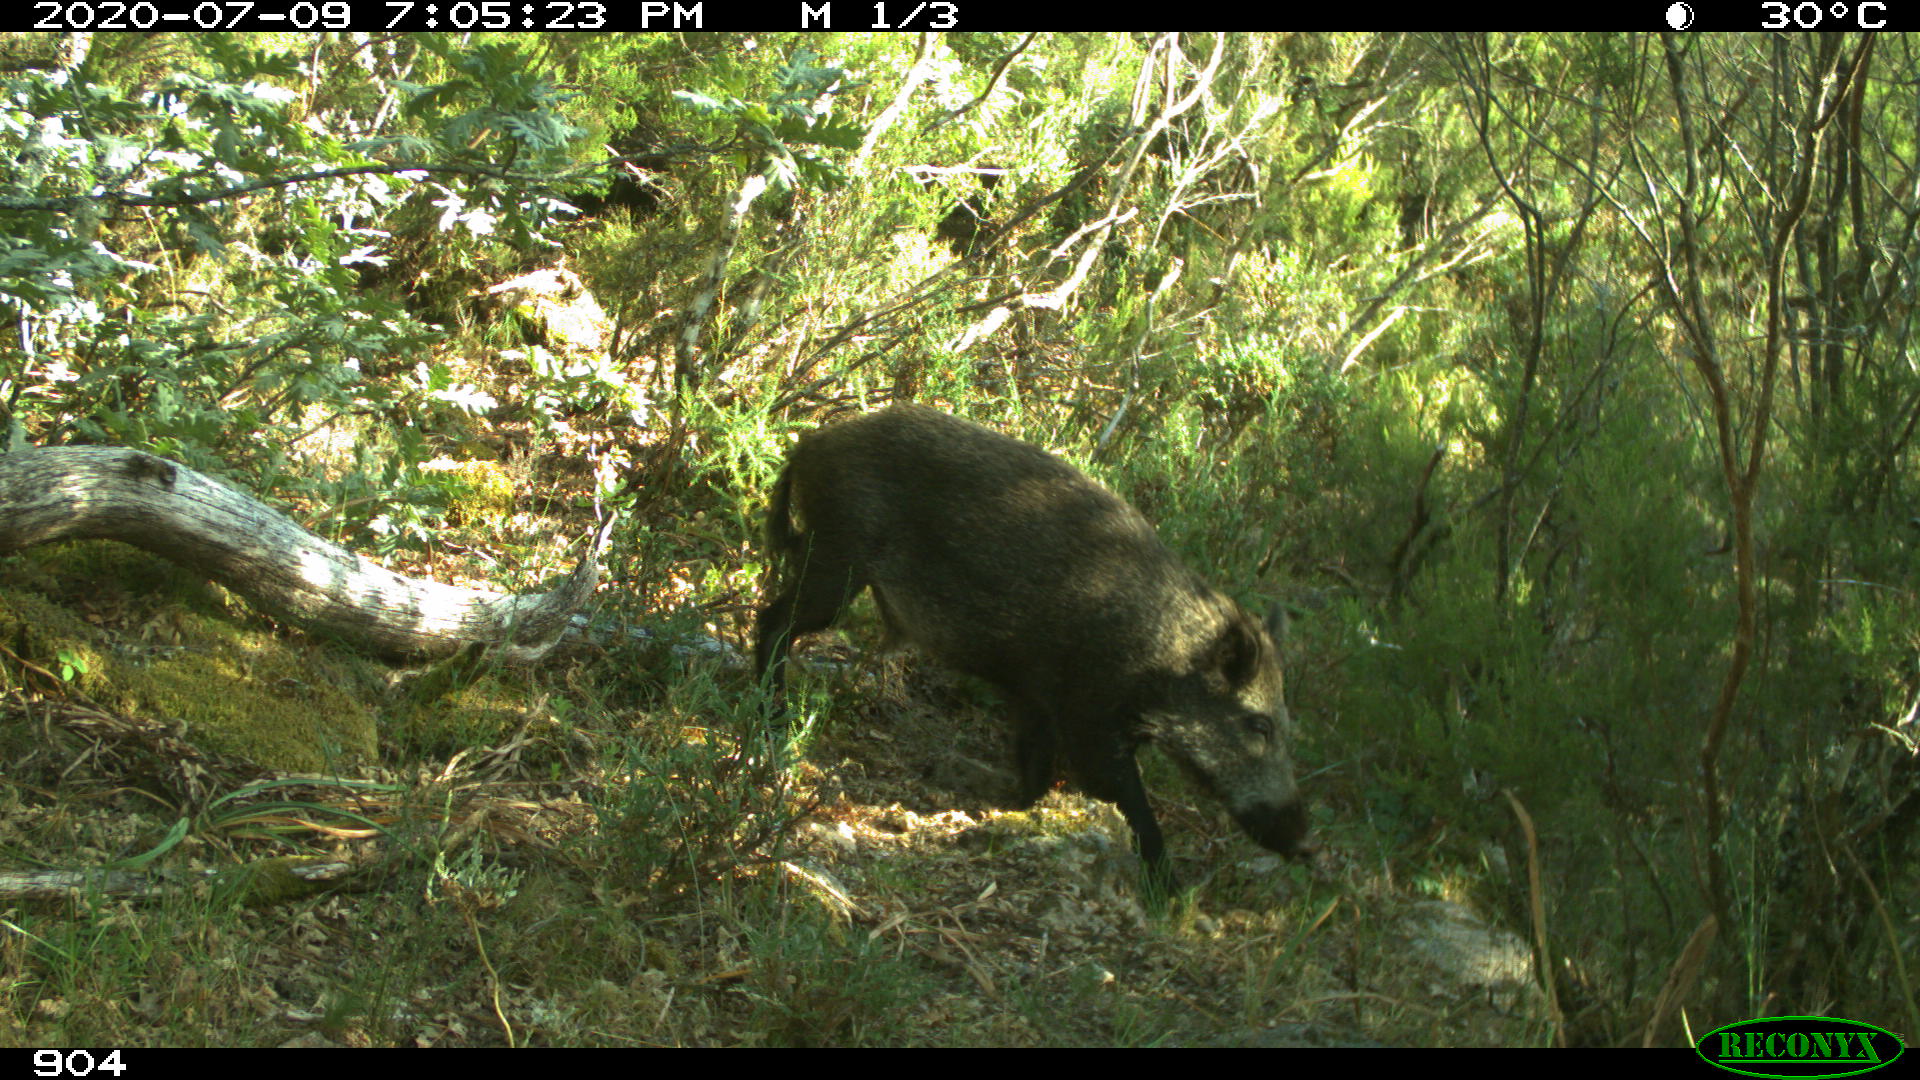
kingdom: Animalia
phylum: Chordata
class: Mammalia
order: Artiodactyla
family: Suidae
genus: Sus
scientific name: Sus scrofa
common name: Wild boar
